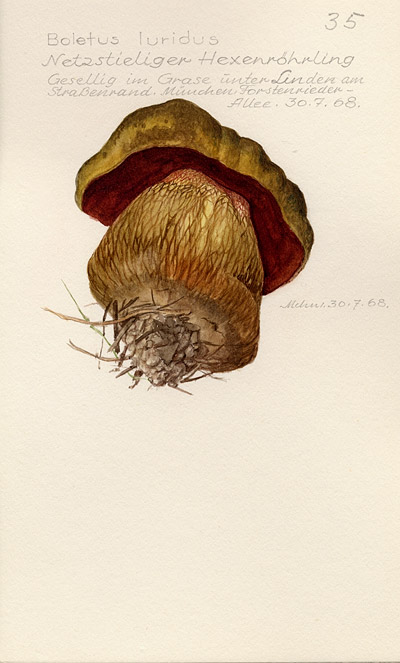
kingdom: Fungi
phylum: Basidiomycota
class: Agaricomycetes
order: Boletales
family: Boletaceae
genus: Suillellus
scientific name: Suillellus luridus
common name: Lurid bolete
